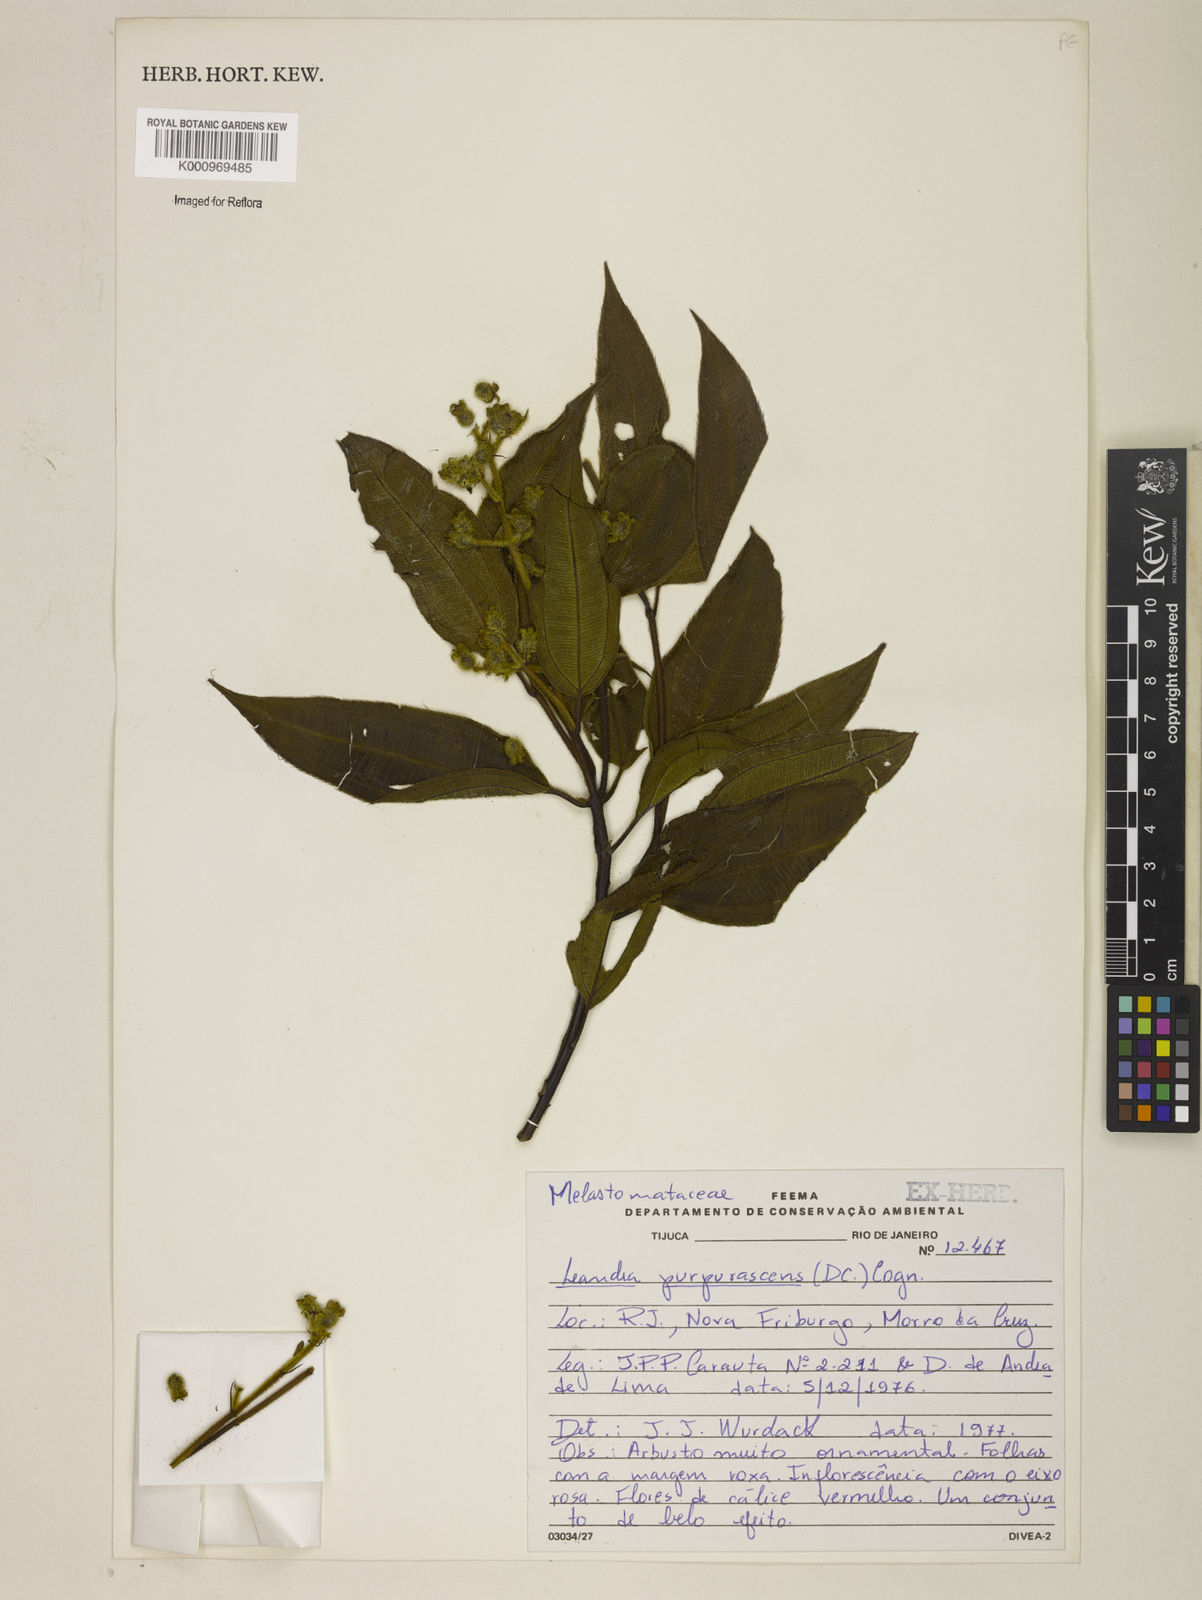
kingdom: Plantae
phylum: Tracheophyta
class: Magnoliopsida
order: Myrtales
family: Melastomataceae
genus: Miconia
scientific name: Miconia microstachya
